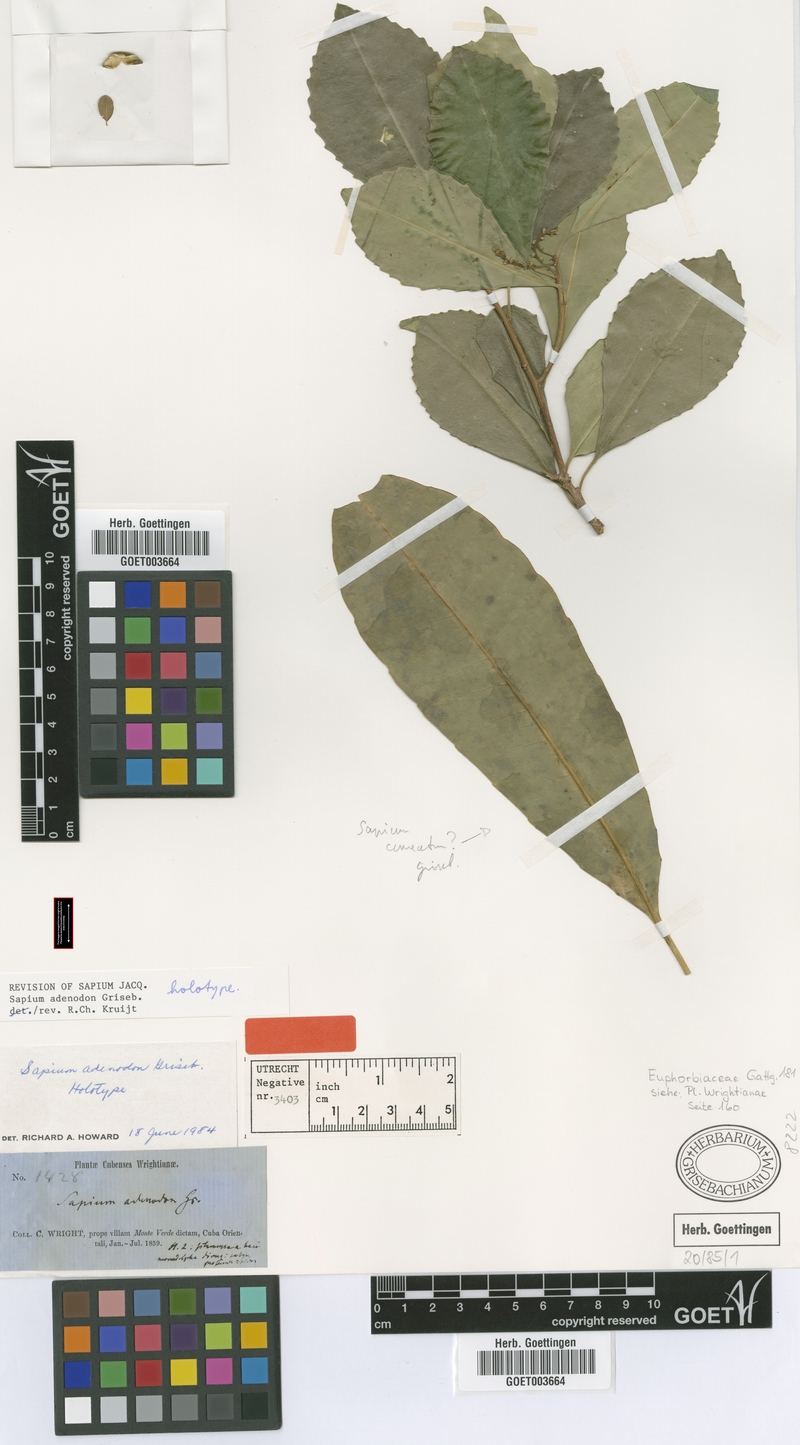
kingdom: Plantae
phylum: Tracheophyta
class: Magnoliopsida
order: Malpighiales
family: Euphorbiaceae
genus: Sapium
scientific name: Sapium adenodon
